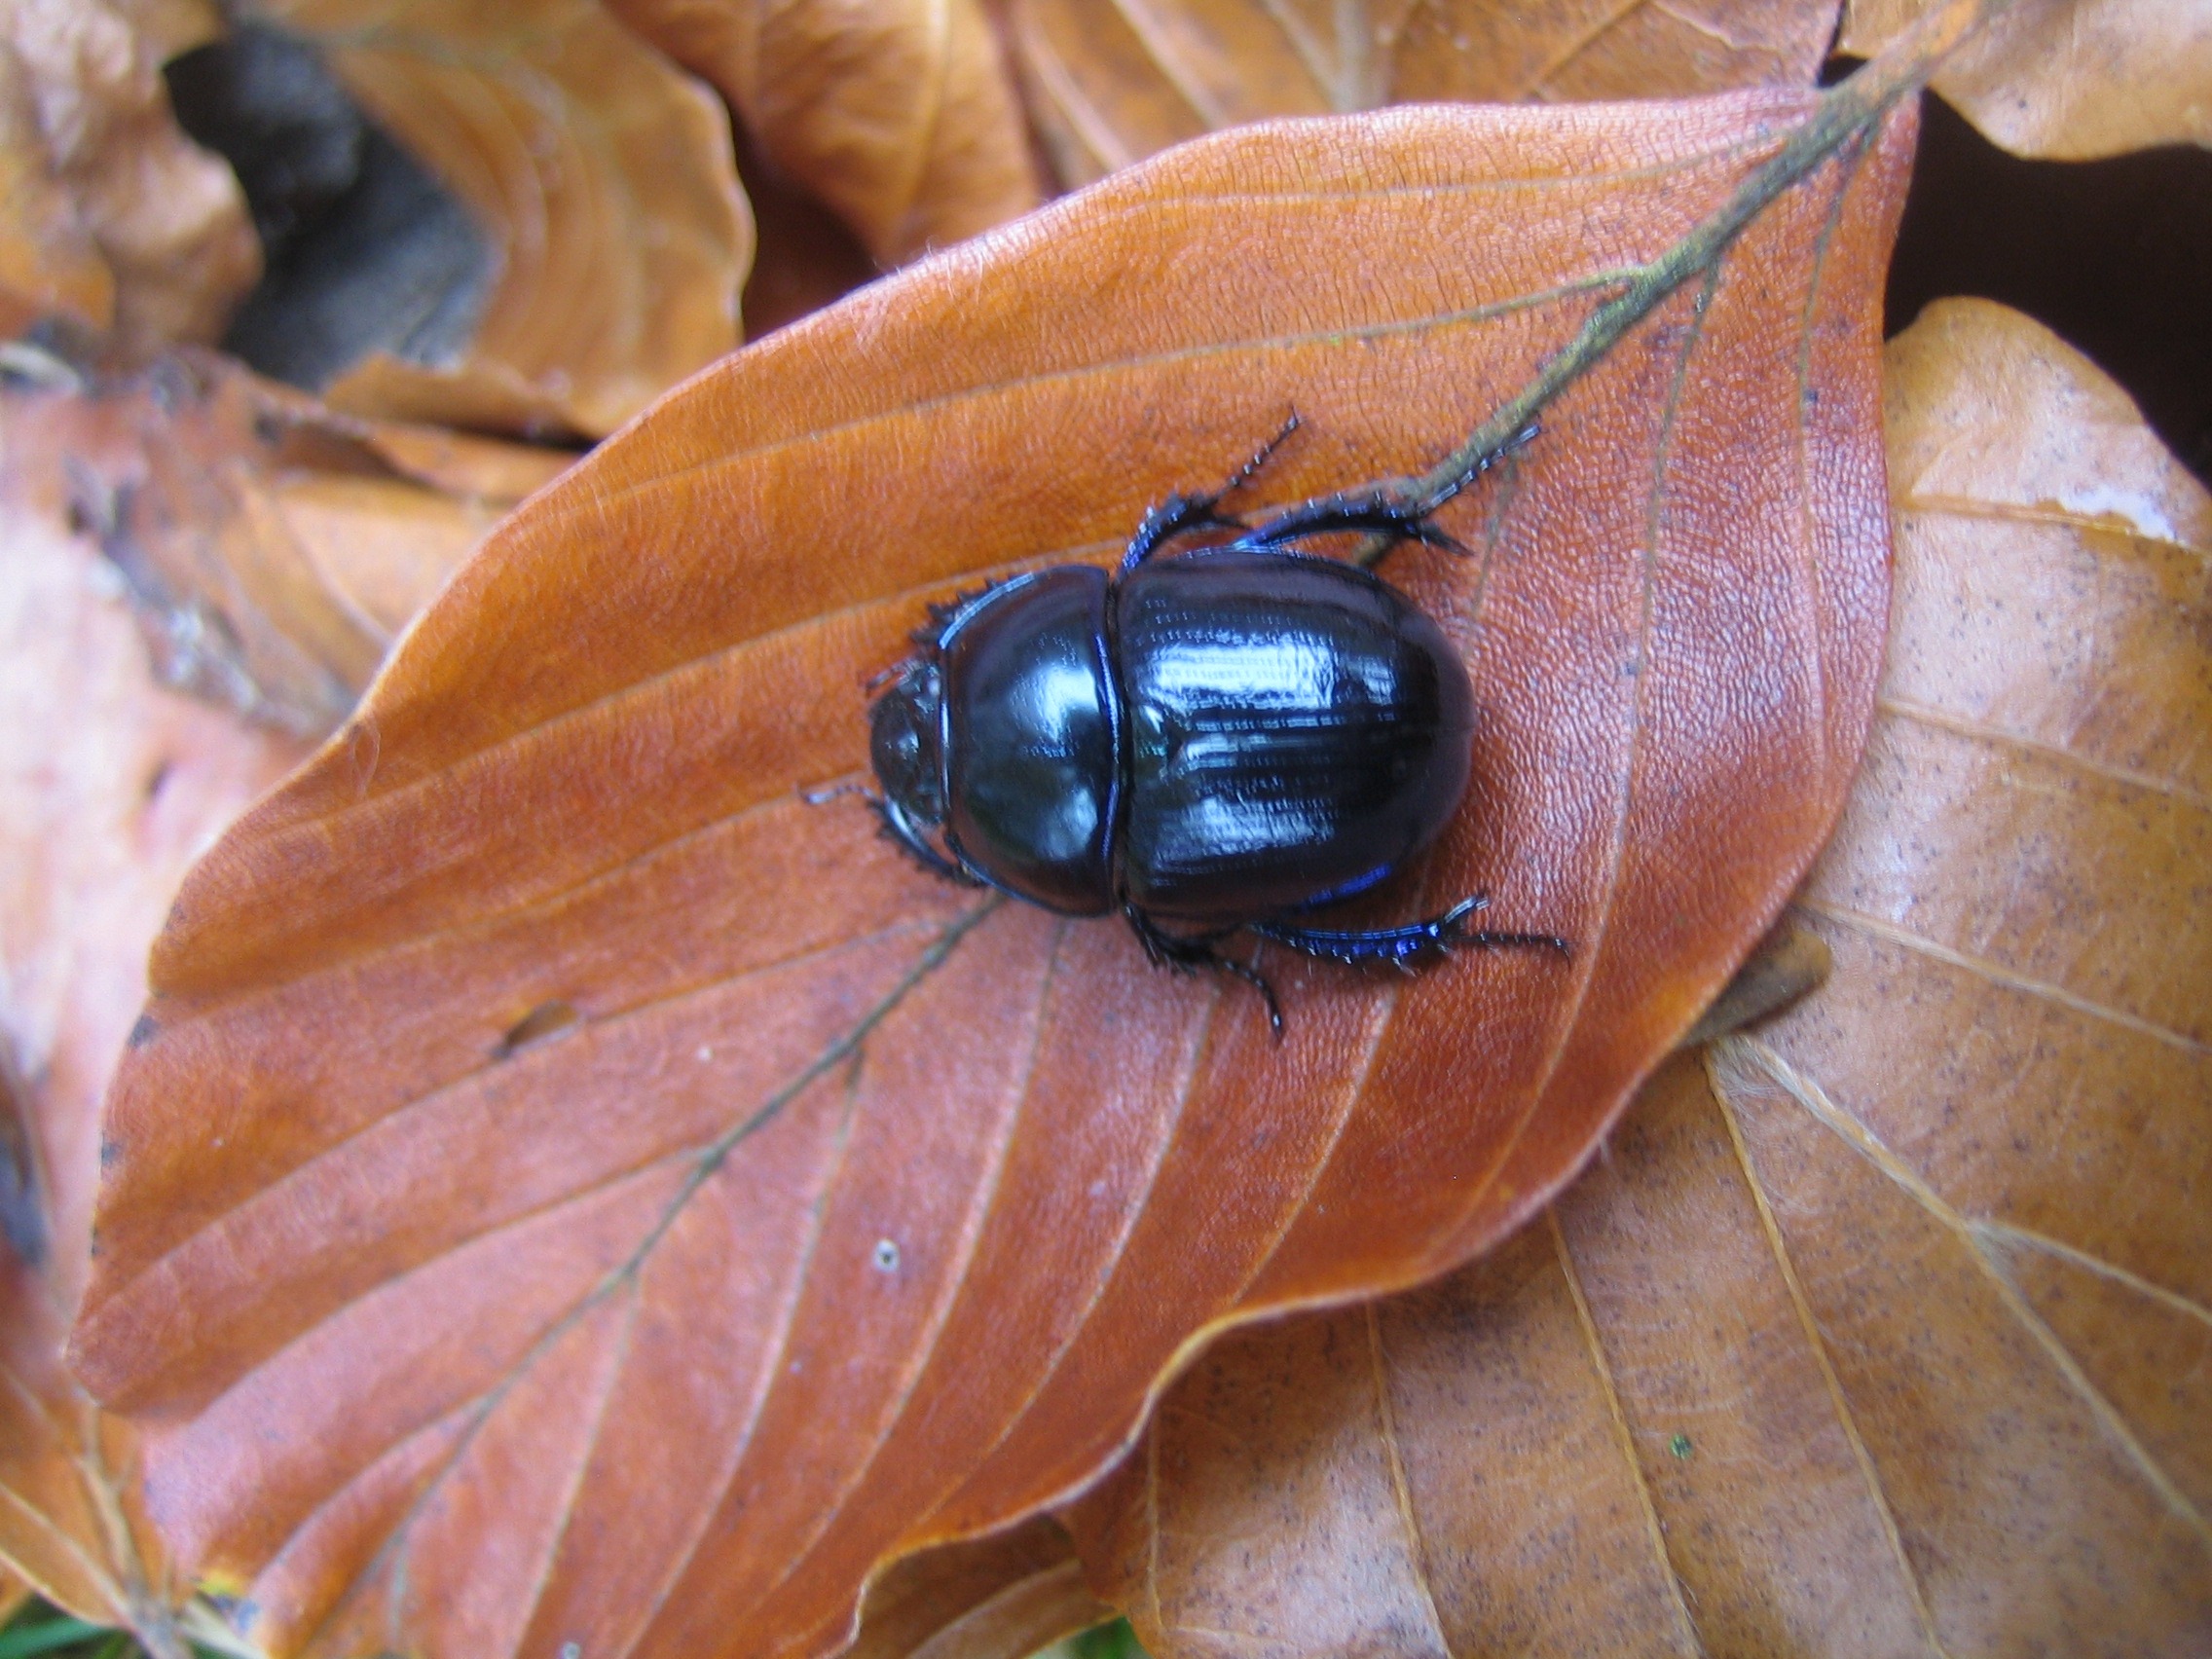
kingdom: Animalia
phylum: Arthropoda
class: Insecta
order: Coleoptera
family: Geotrupidae
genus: Anoplotrupes
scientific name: Anoplotrupes stercorosus
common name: Skovskarnbasse
